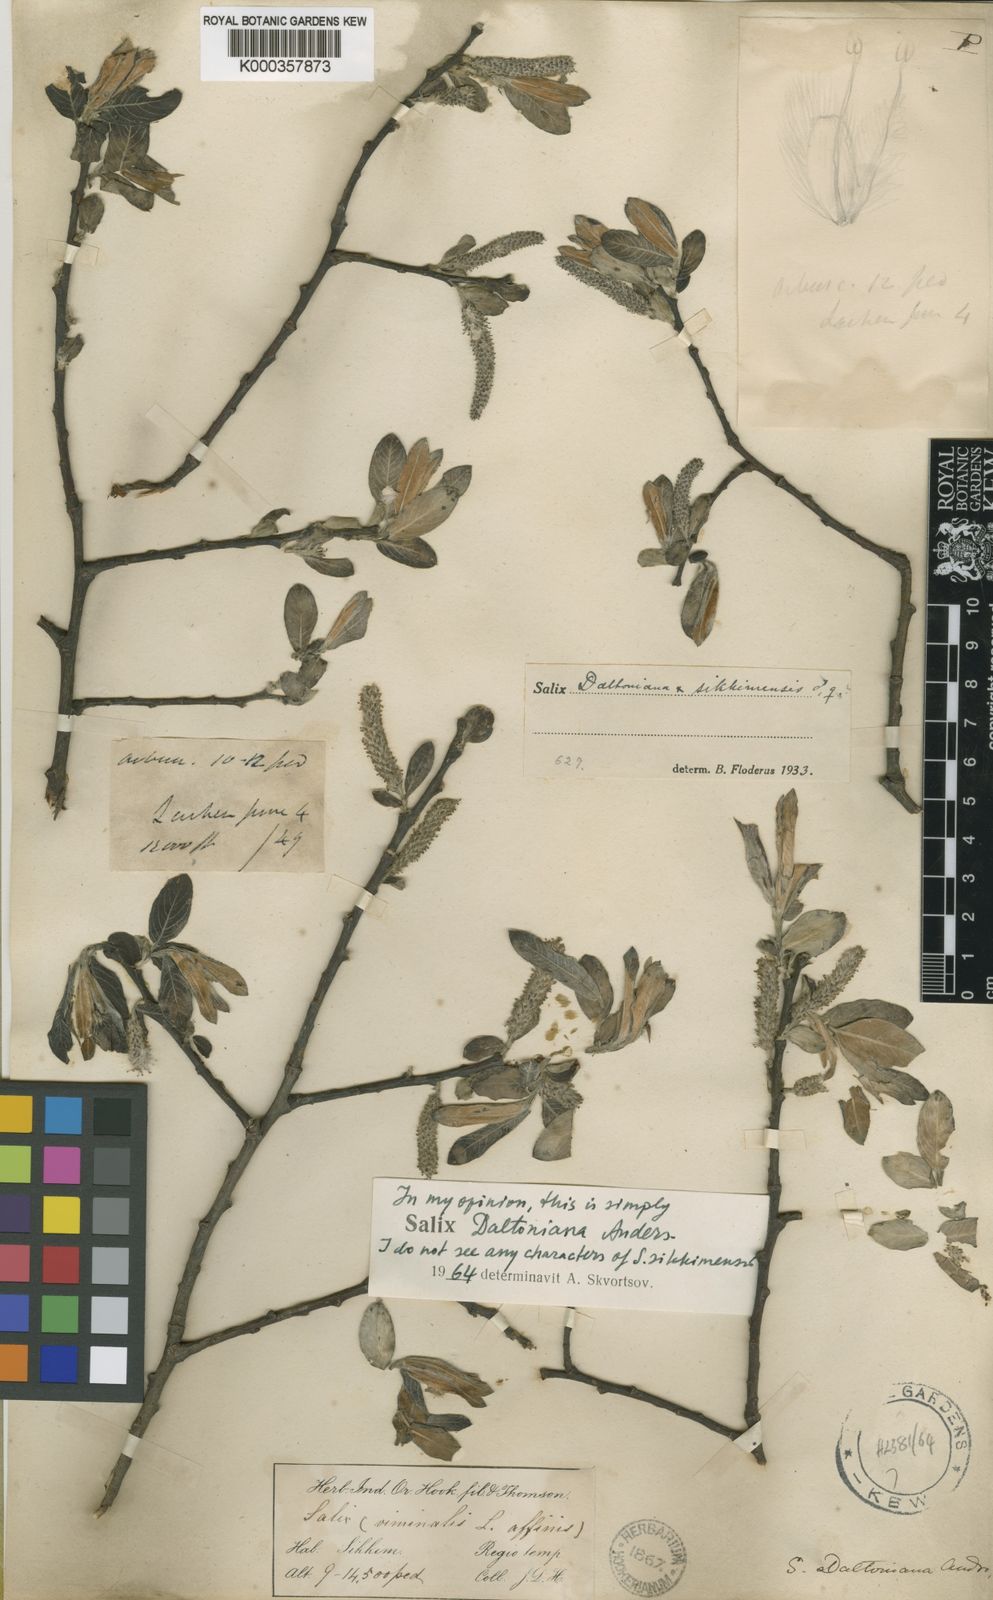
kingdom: Plantae
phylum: Tracheophyta
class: Magnoliopsida
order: Malpighiales
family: Salicaceae
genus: Salix
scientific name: Salix daltoniana
